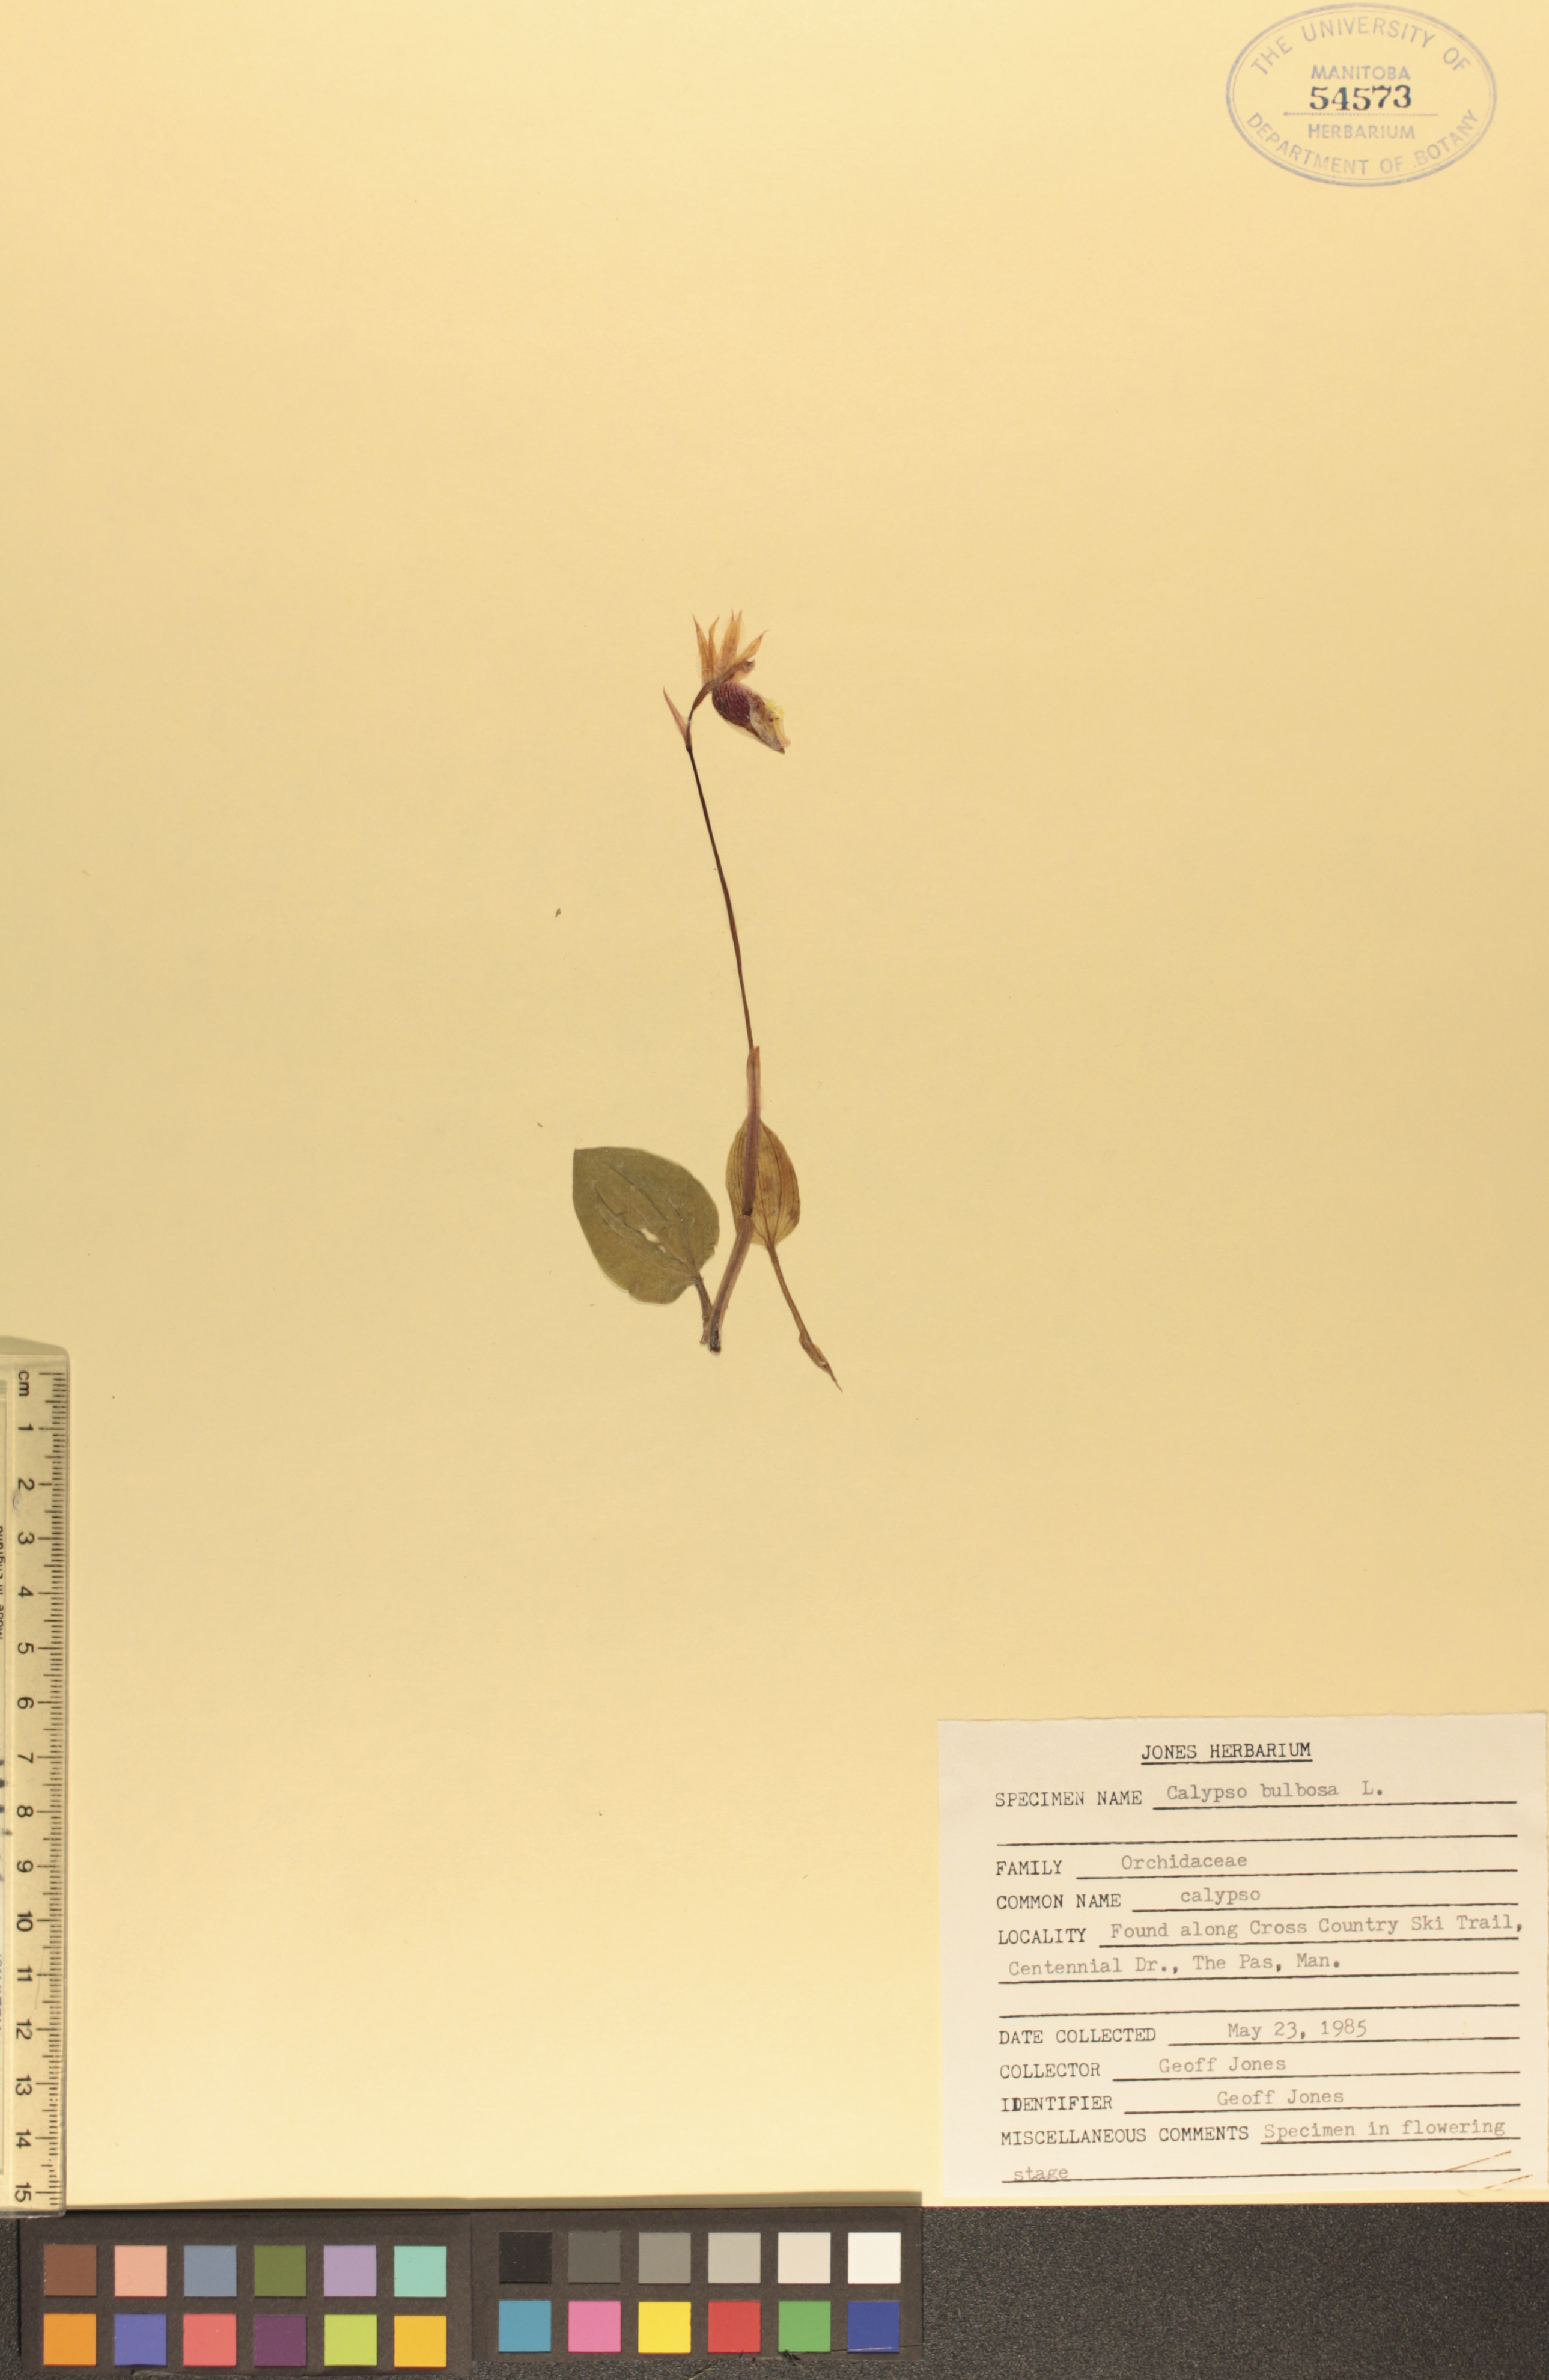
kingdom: Plantae
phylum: Tracheophyta
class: Liliopsida
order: Asparagales
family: Orchidaceae
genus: Calypso
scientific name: Calypso bulbosa
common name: Calypso
